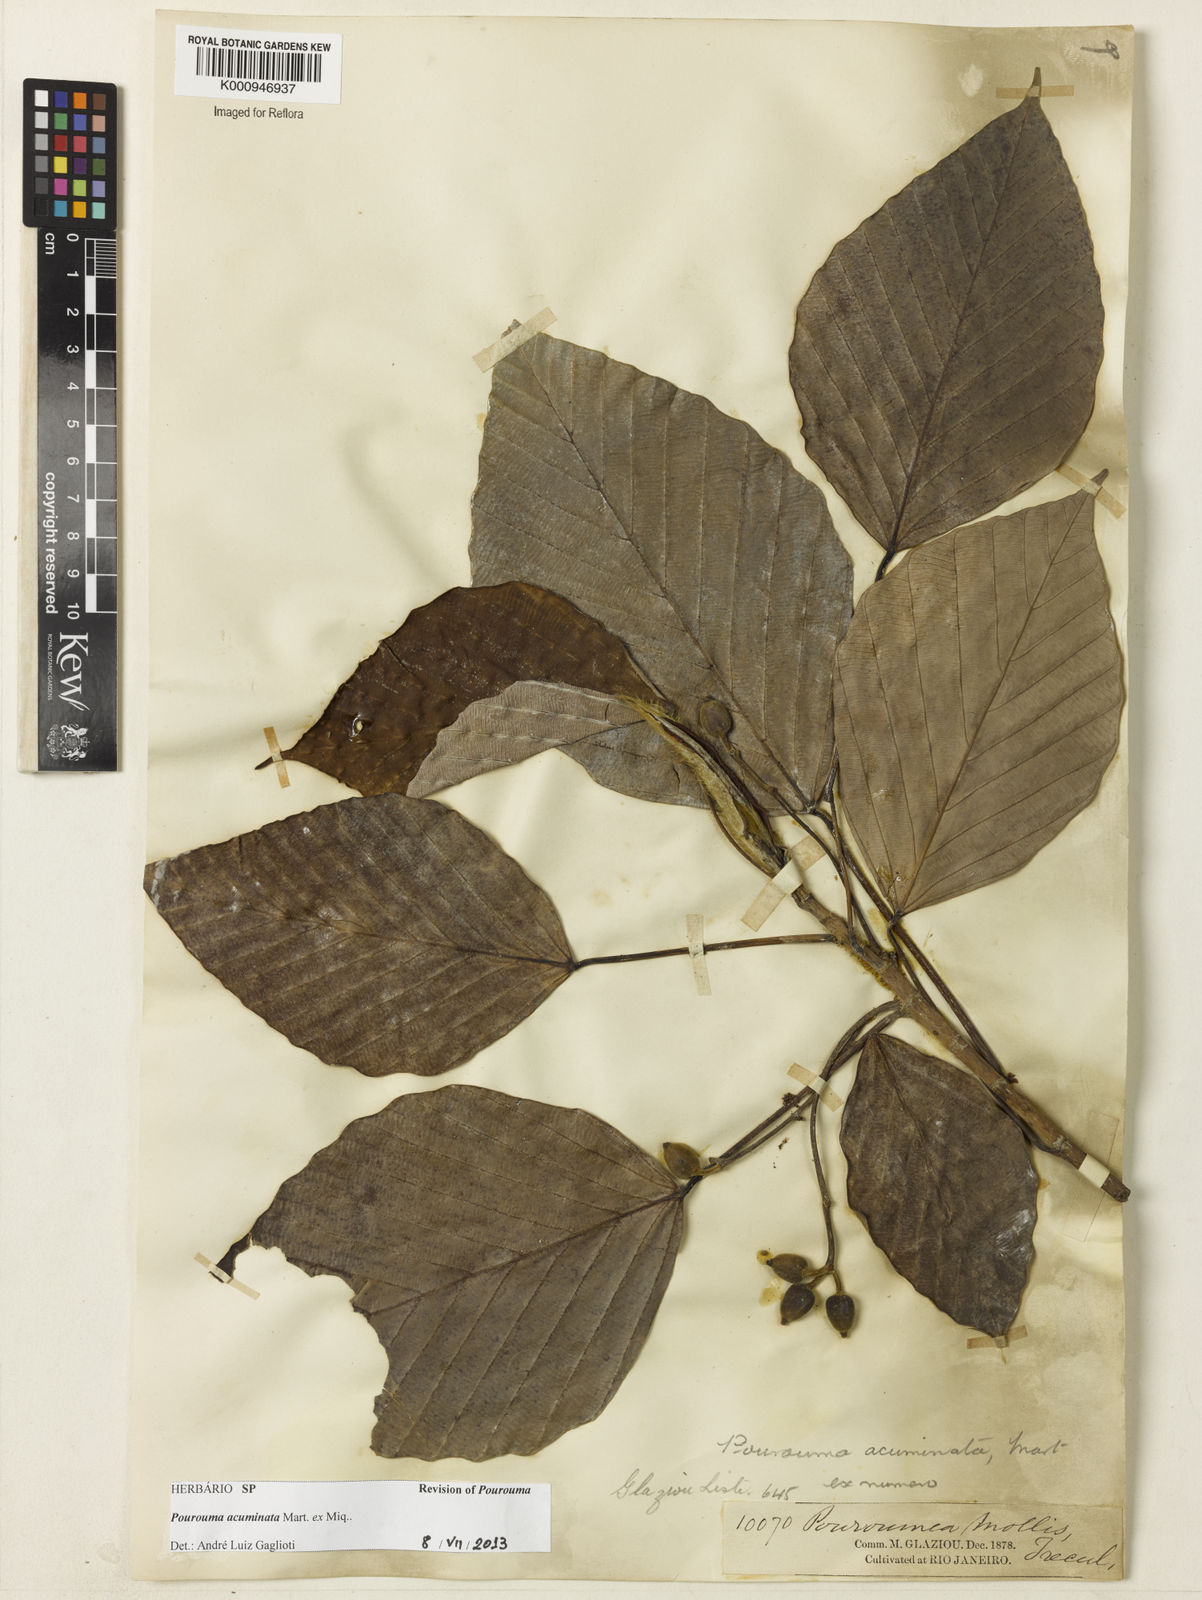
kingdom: Plantae
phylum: Tracheophyta
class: Magnoliopsida
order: Rosales
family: Urticaceae
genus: Pourouma
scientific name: Pourouma acuminata
